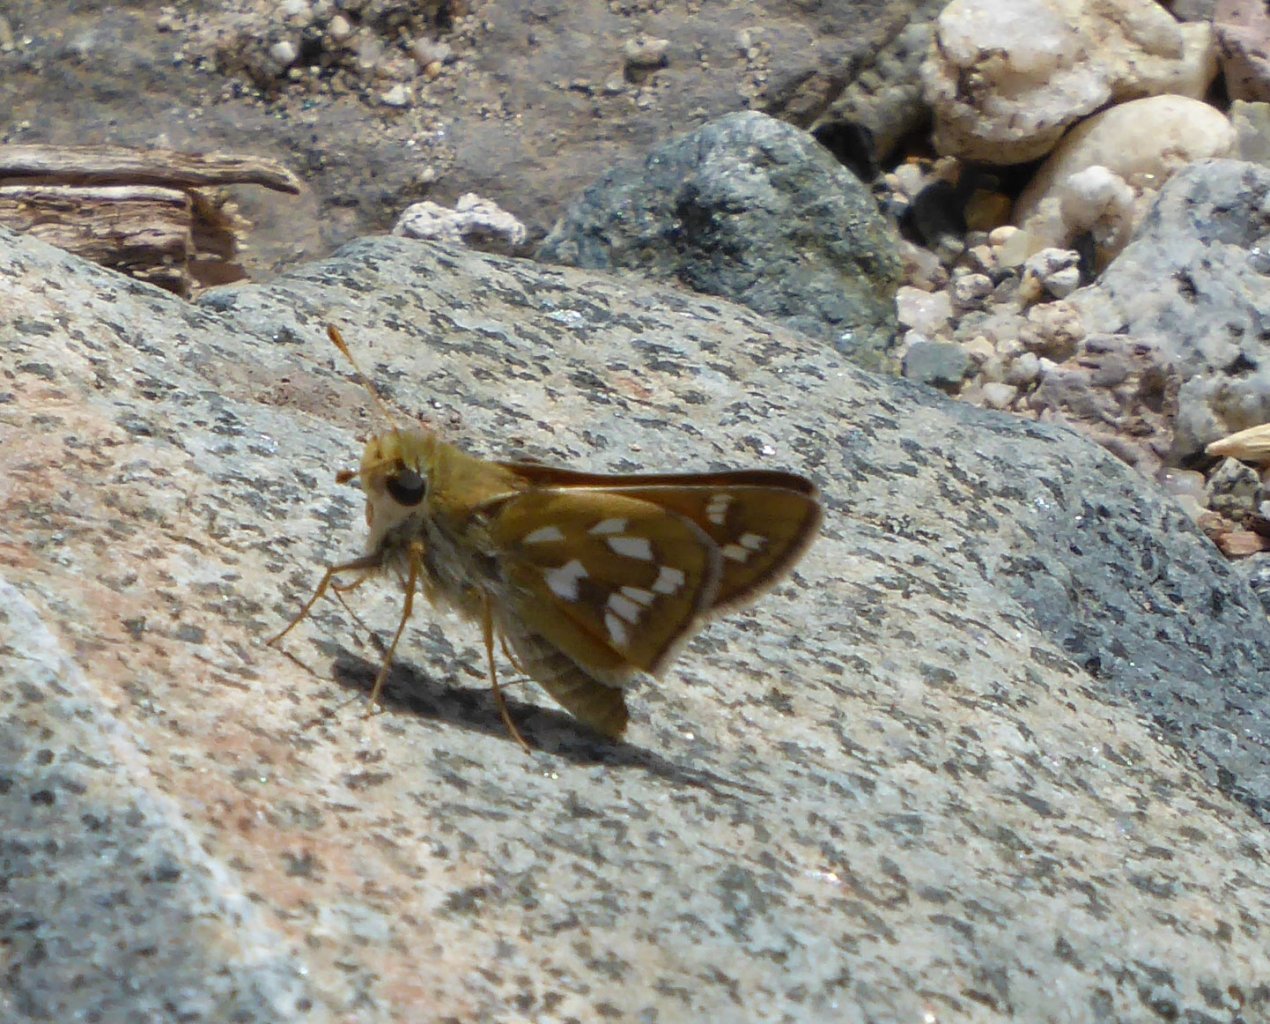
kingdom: Animalia
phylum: Arthropoda
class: Insecta
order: Lepidoptera
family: Hesperiidae
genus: Hesperia
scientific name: Hesperia viridis
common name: Green Skipper
